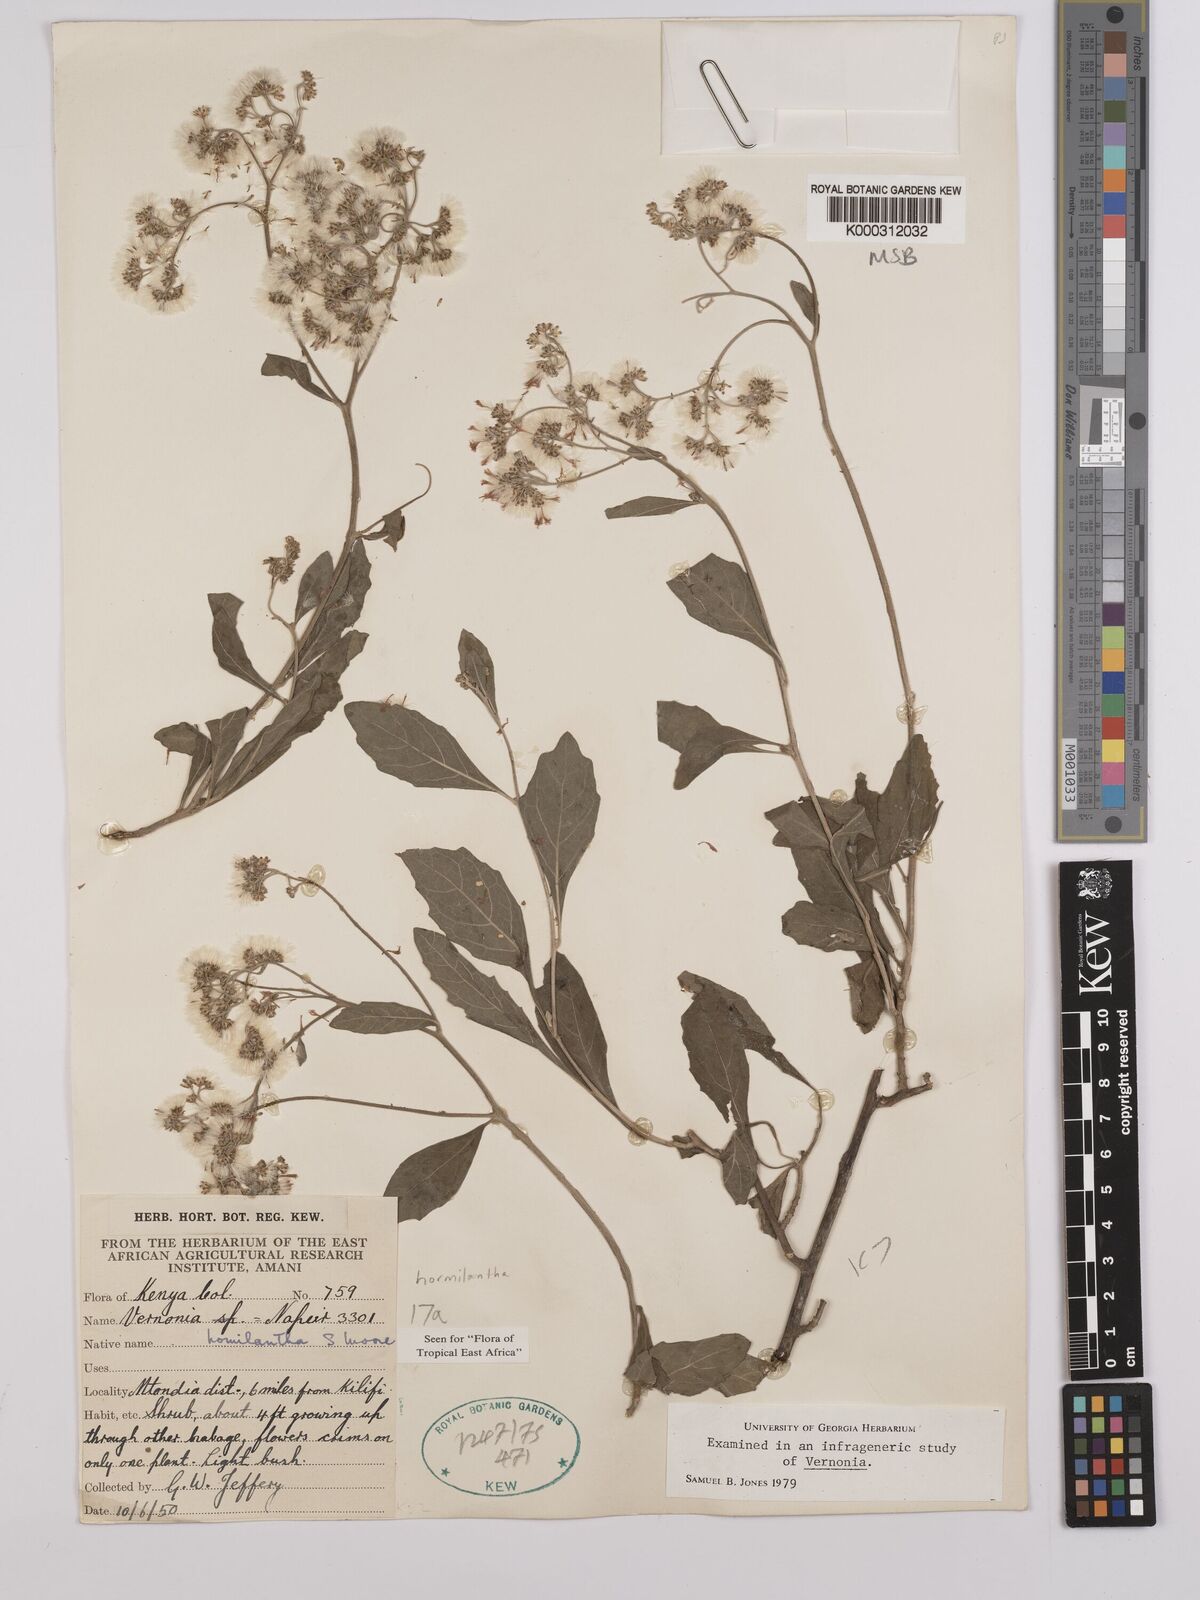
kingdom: Plantae
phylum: Tracheophyta
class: Magnoliopsida
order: Asterales
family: Asteraceae
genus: Orbivestus
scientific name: Orbivestus homilanthus
